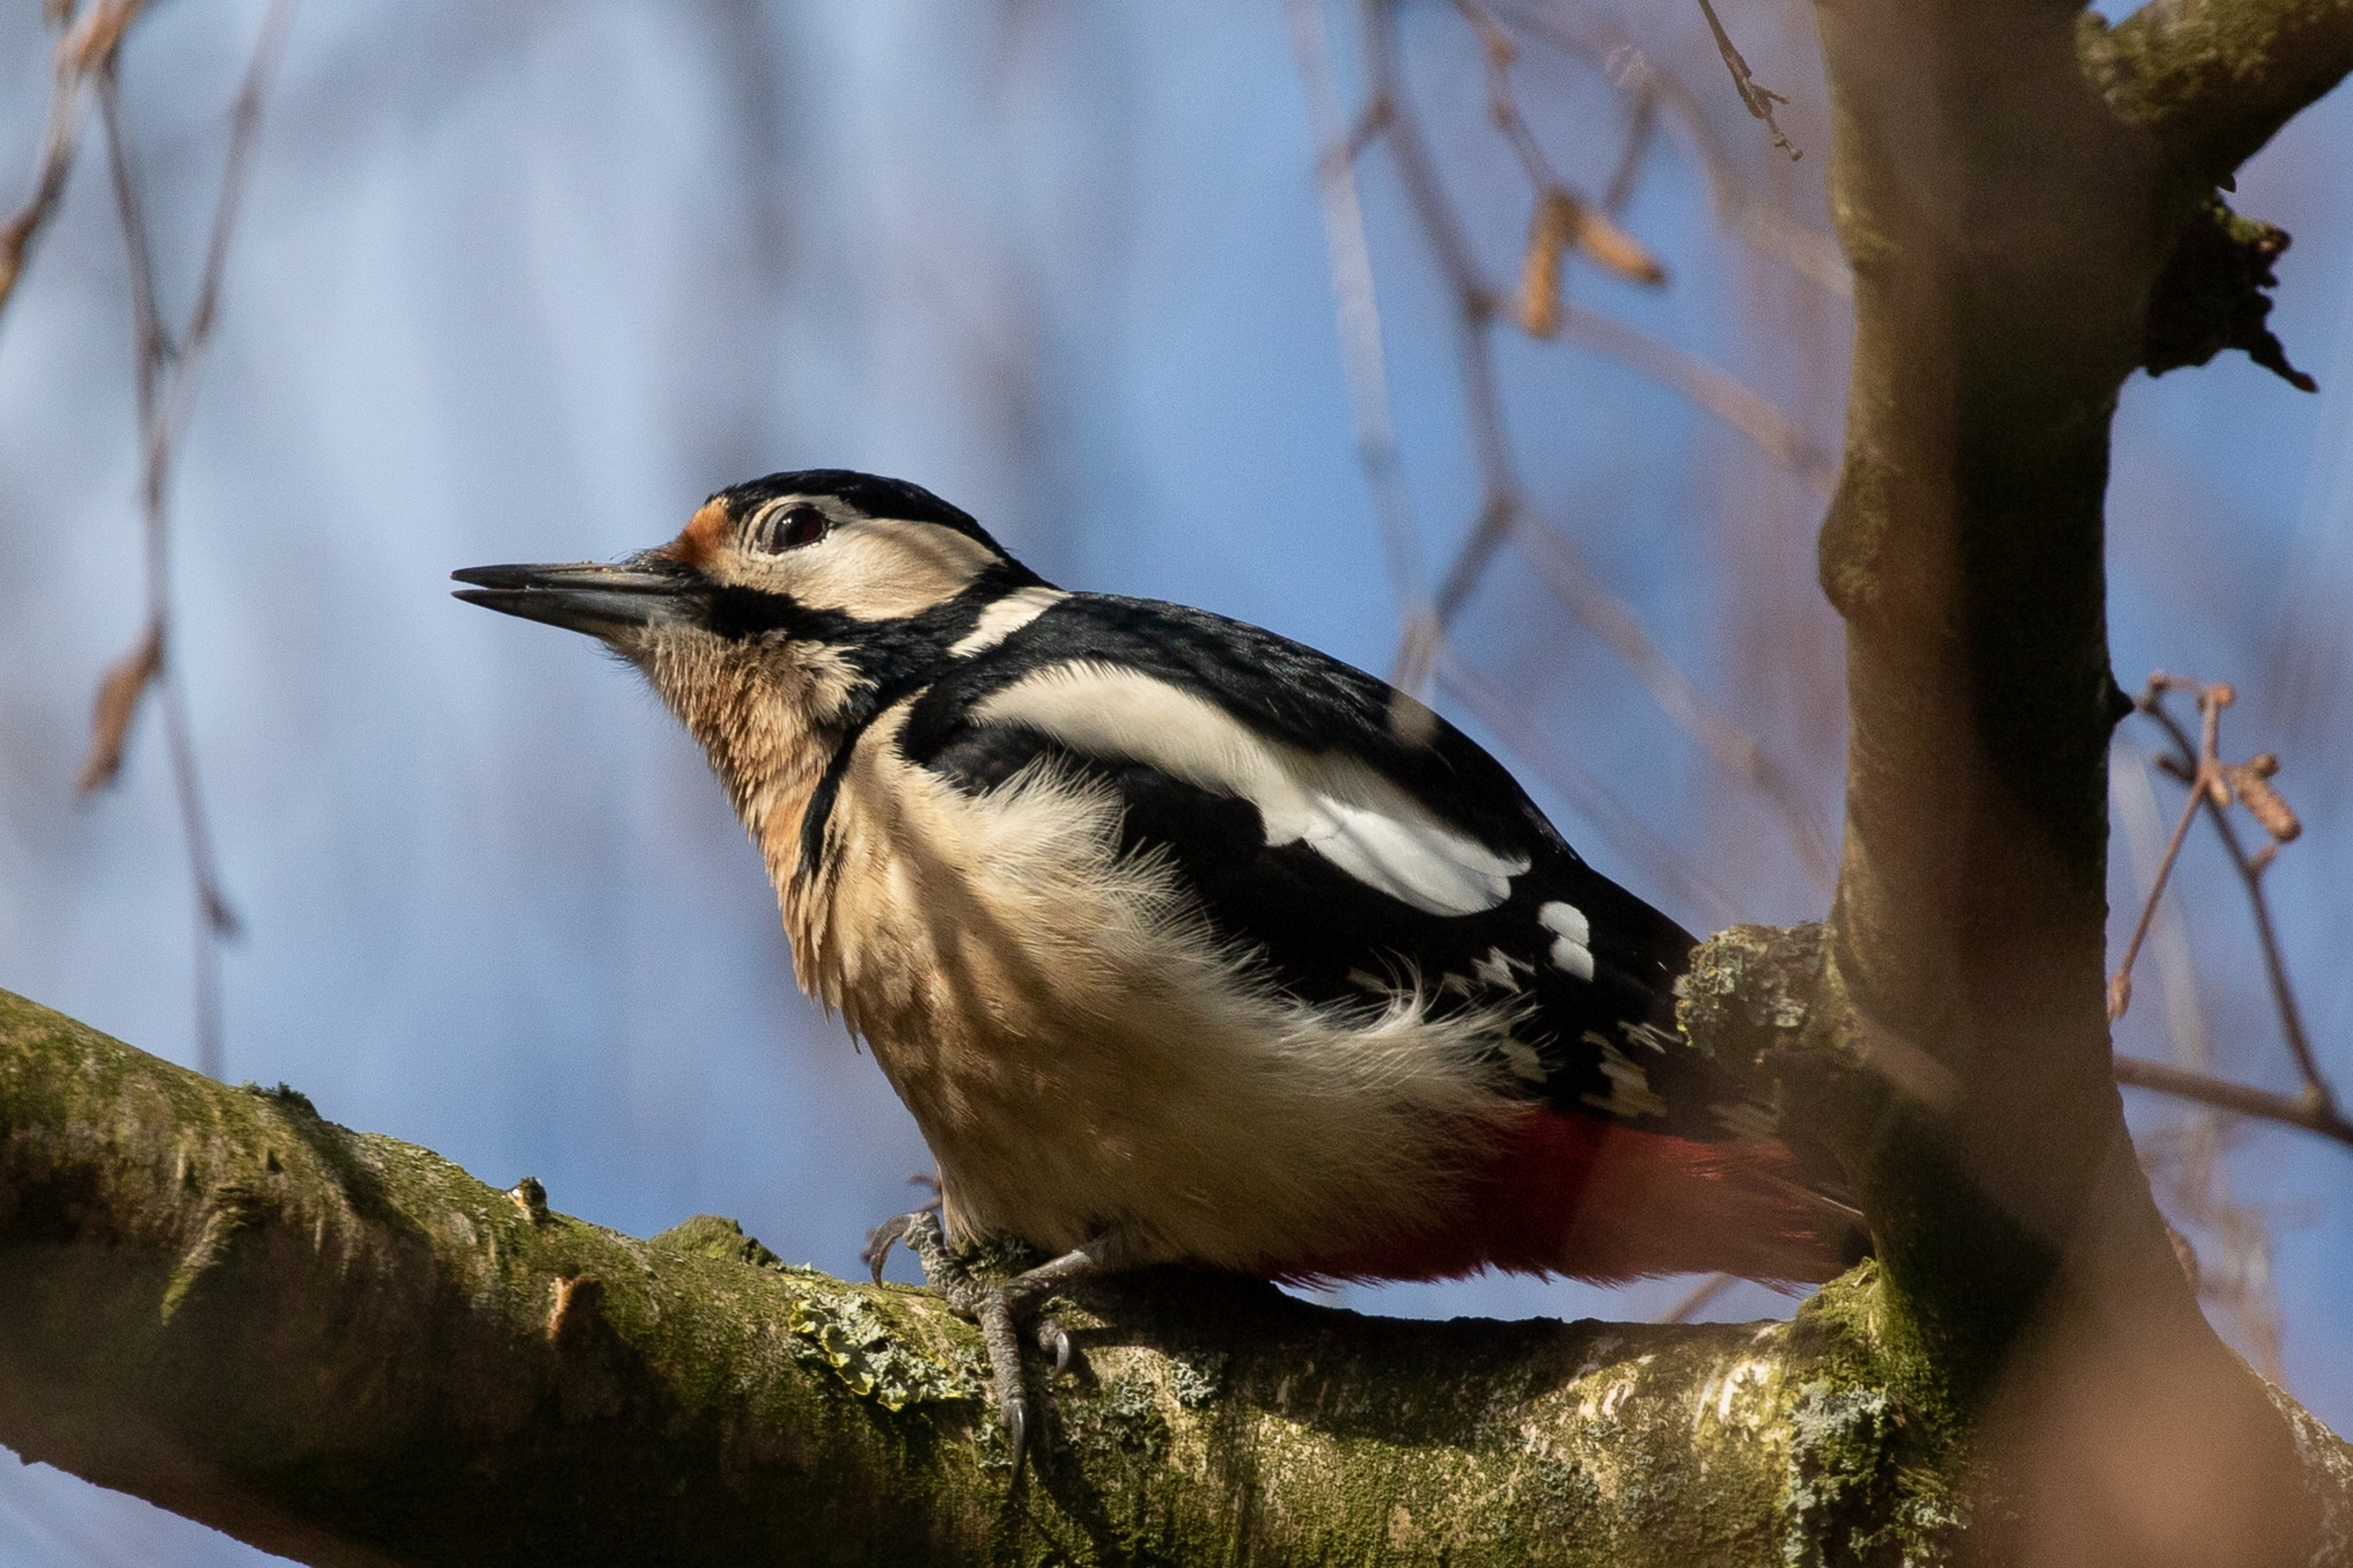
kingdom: Animalia
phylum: Chordata
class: Aves
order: Piciformes
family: Picidae
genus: Dendrocopos
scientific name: Dendrocopos major
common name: Stor flagspætte
